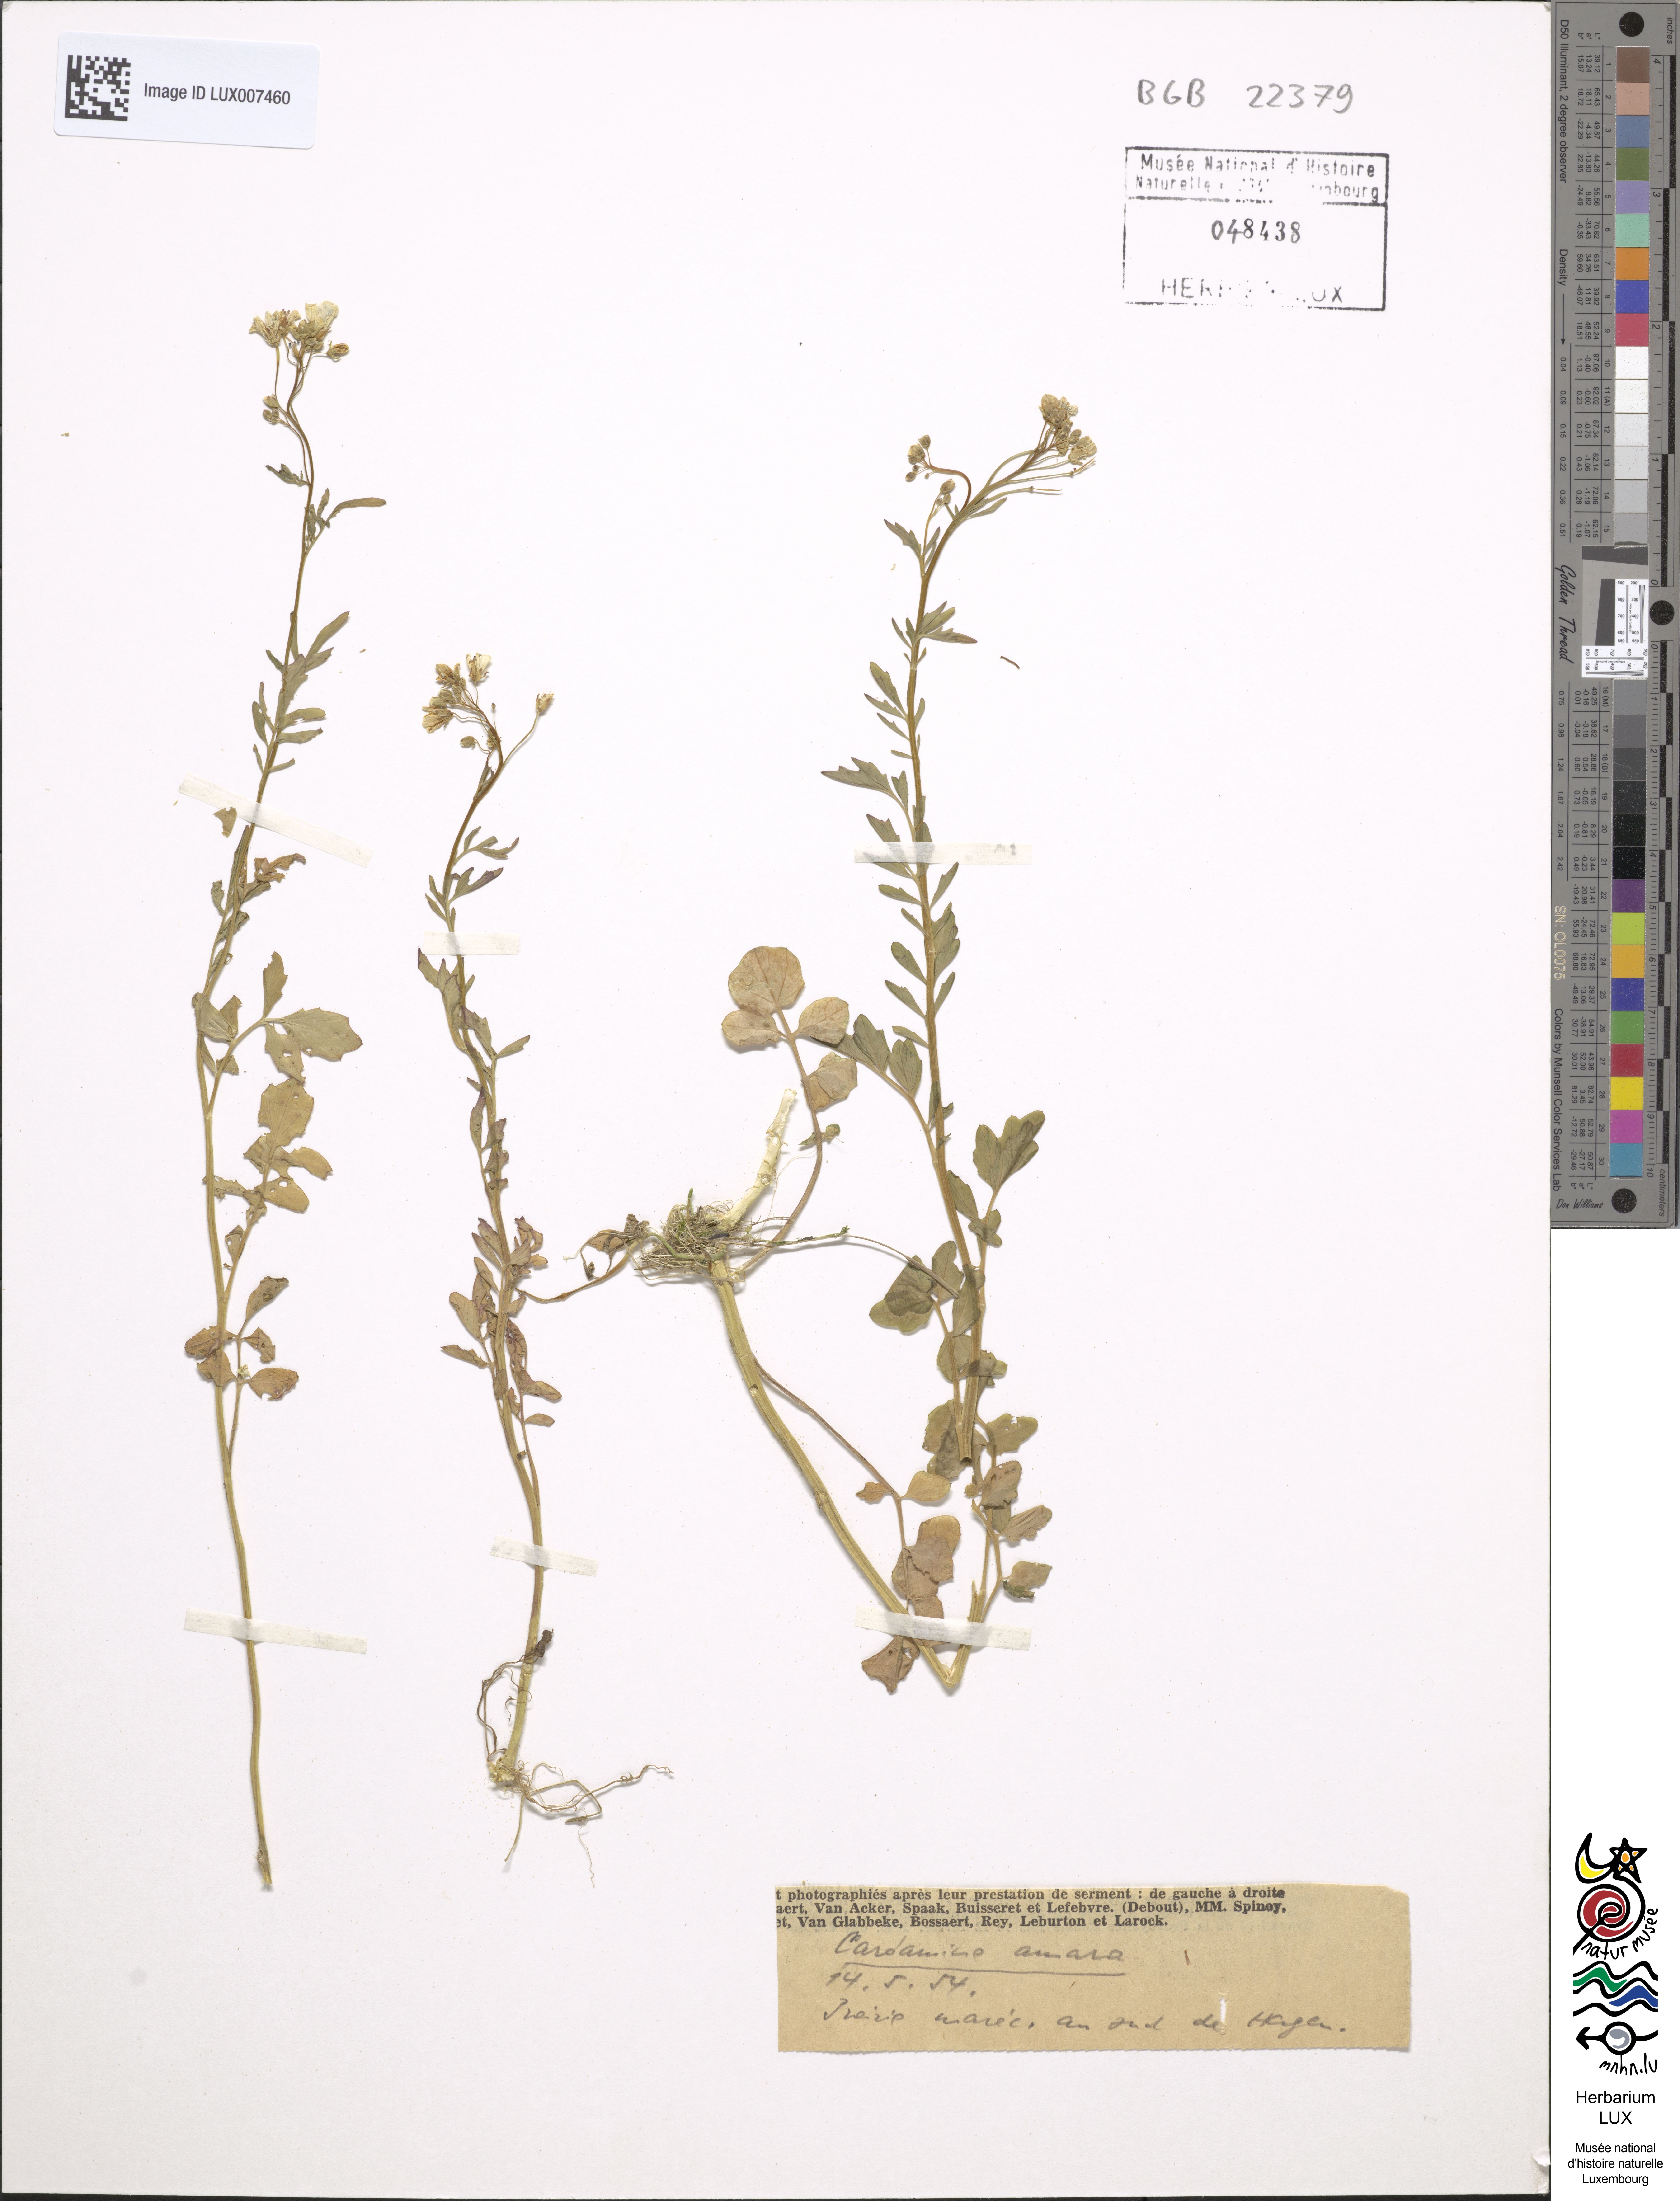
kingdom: Plantae
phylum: Tracheophyta
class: Magnoliopsida
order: Brassicales
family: Brassicaceae
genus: Cardamine
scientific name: Cardamine amara
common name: Large bitter-cress
